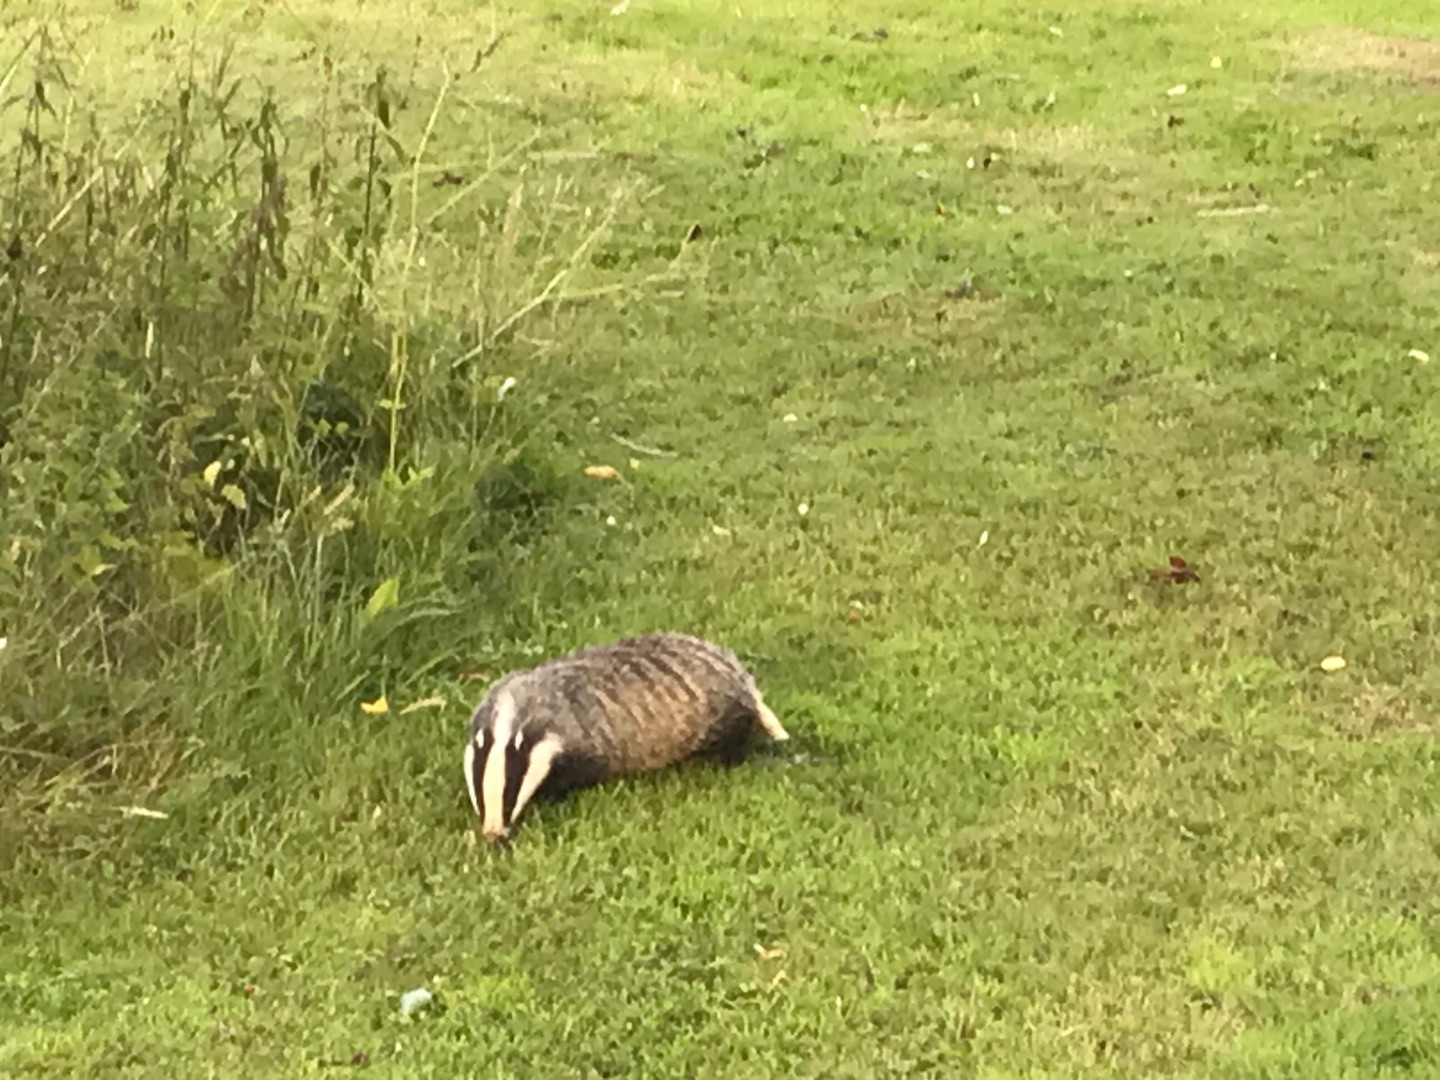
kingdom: Animalia
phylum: Chordata
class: Mammalia
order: Carnivora
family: Mustelidae
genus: Meles
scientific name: Meles meles
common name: Grævling
